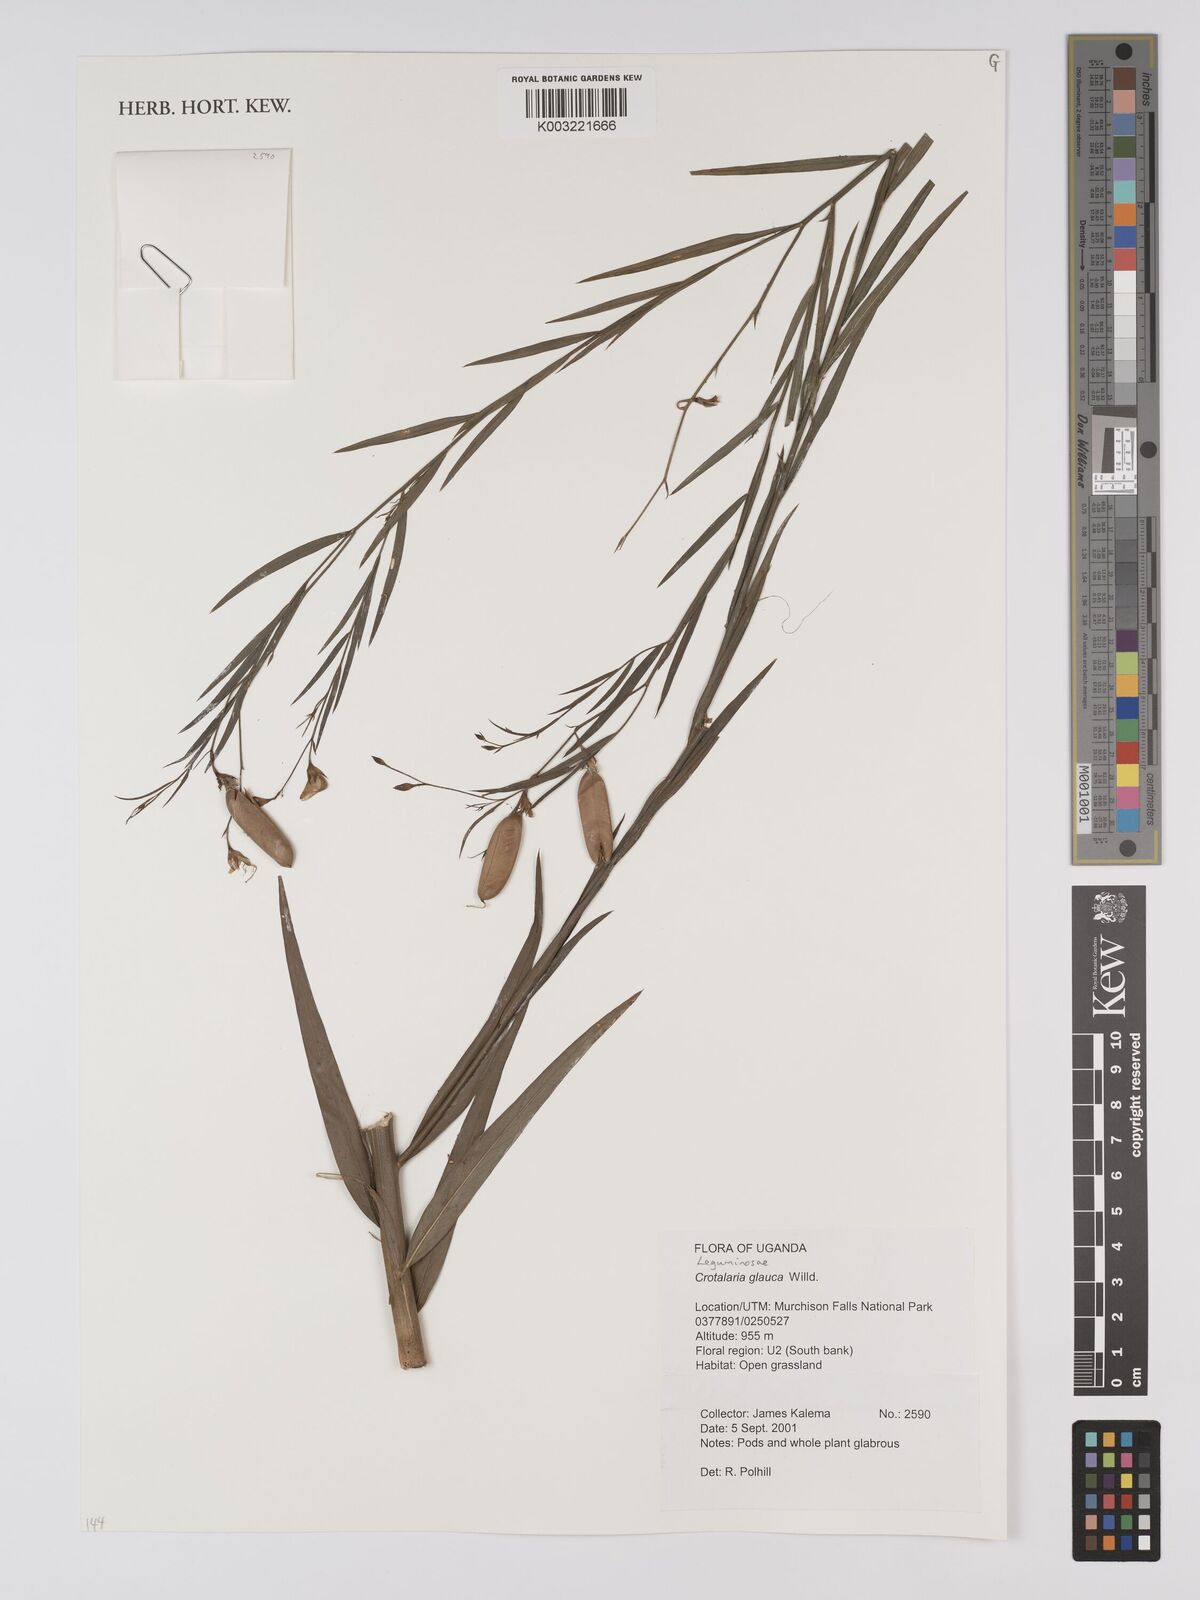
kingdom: Plantae
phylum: Tracheophyta
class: Magnoliopsida
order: Fabales
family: Fabaceae
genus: Crotalaria
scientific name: Crotalaria glauca
